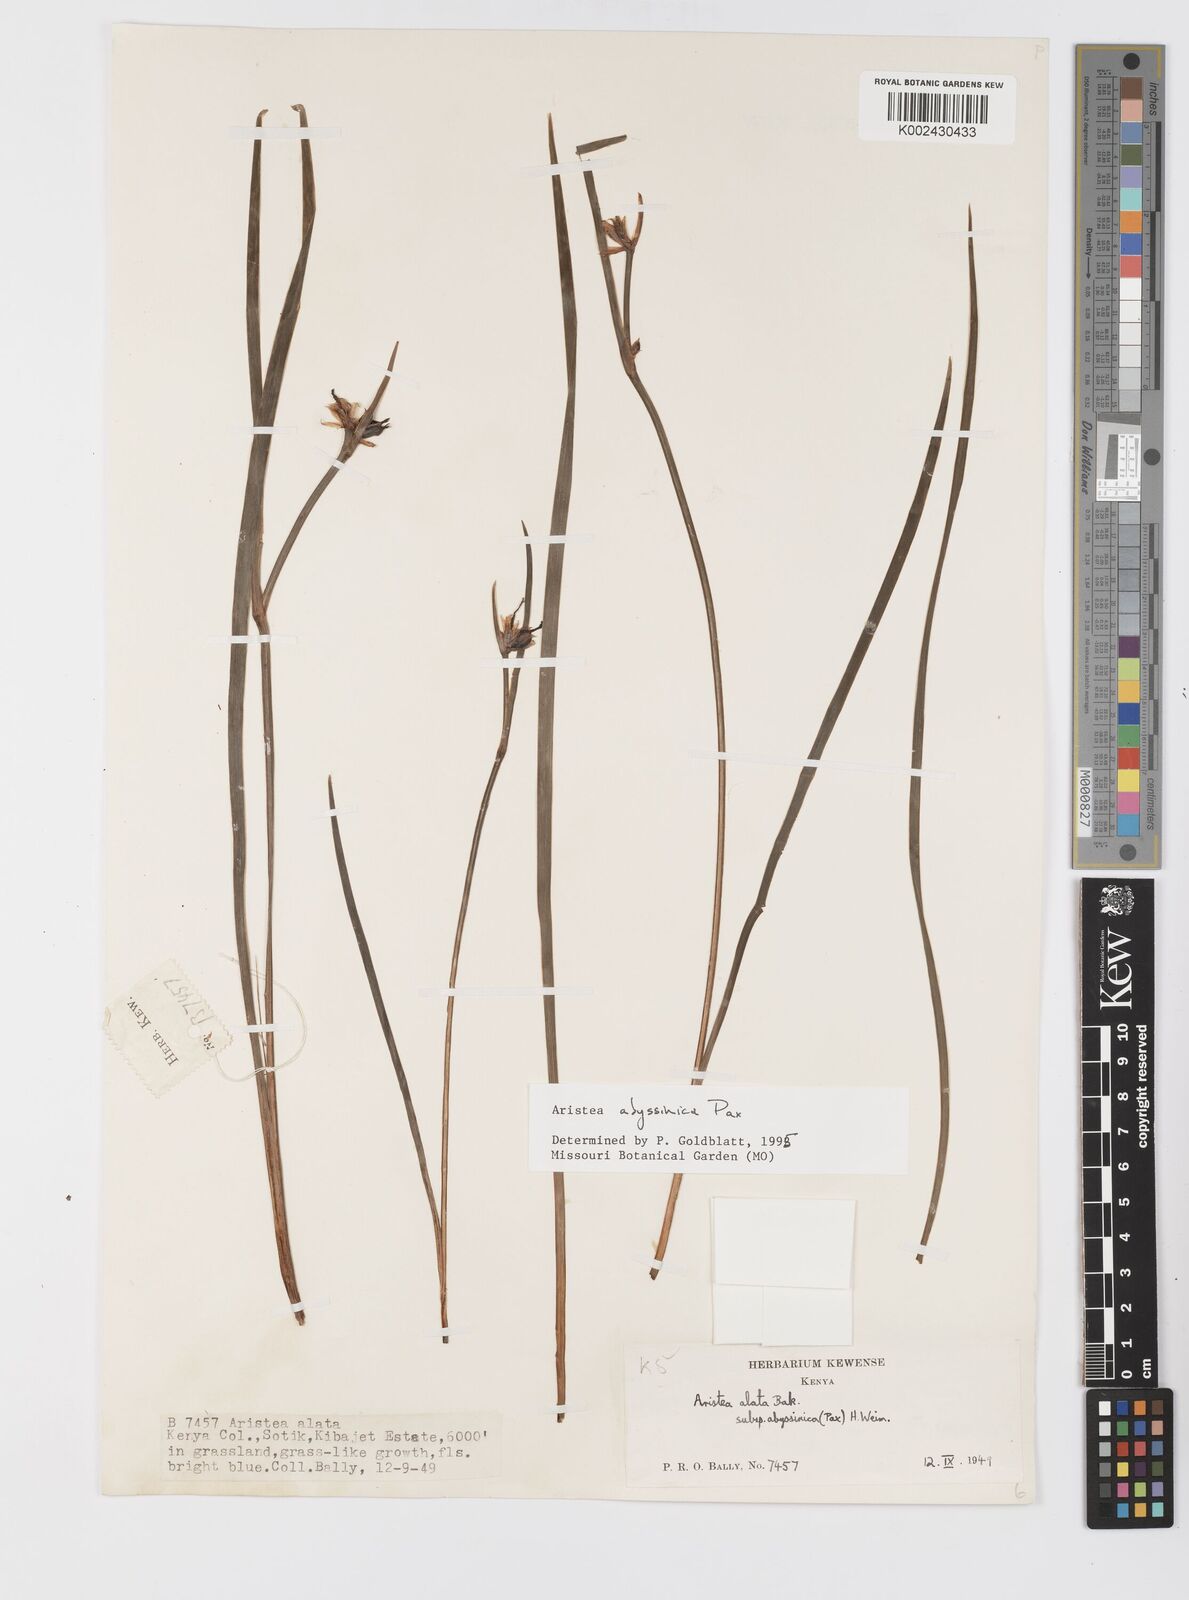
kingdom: Plantae
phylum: Tracheophyta
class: Liliopsida
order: Asparagales
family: Iridaceae
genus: Aristea
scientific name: Aristea abyssinica
